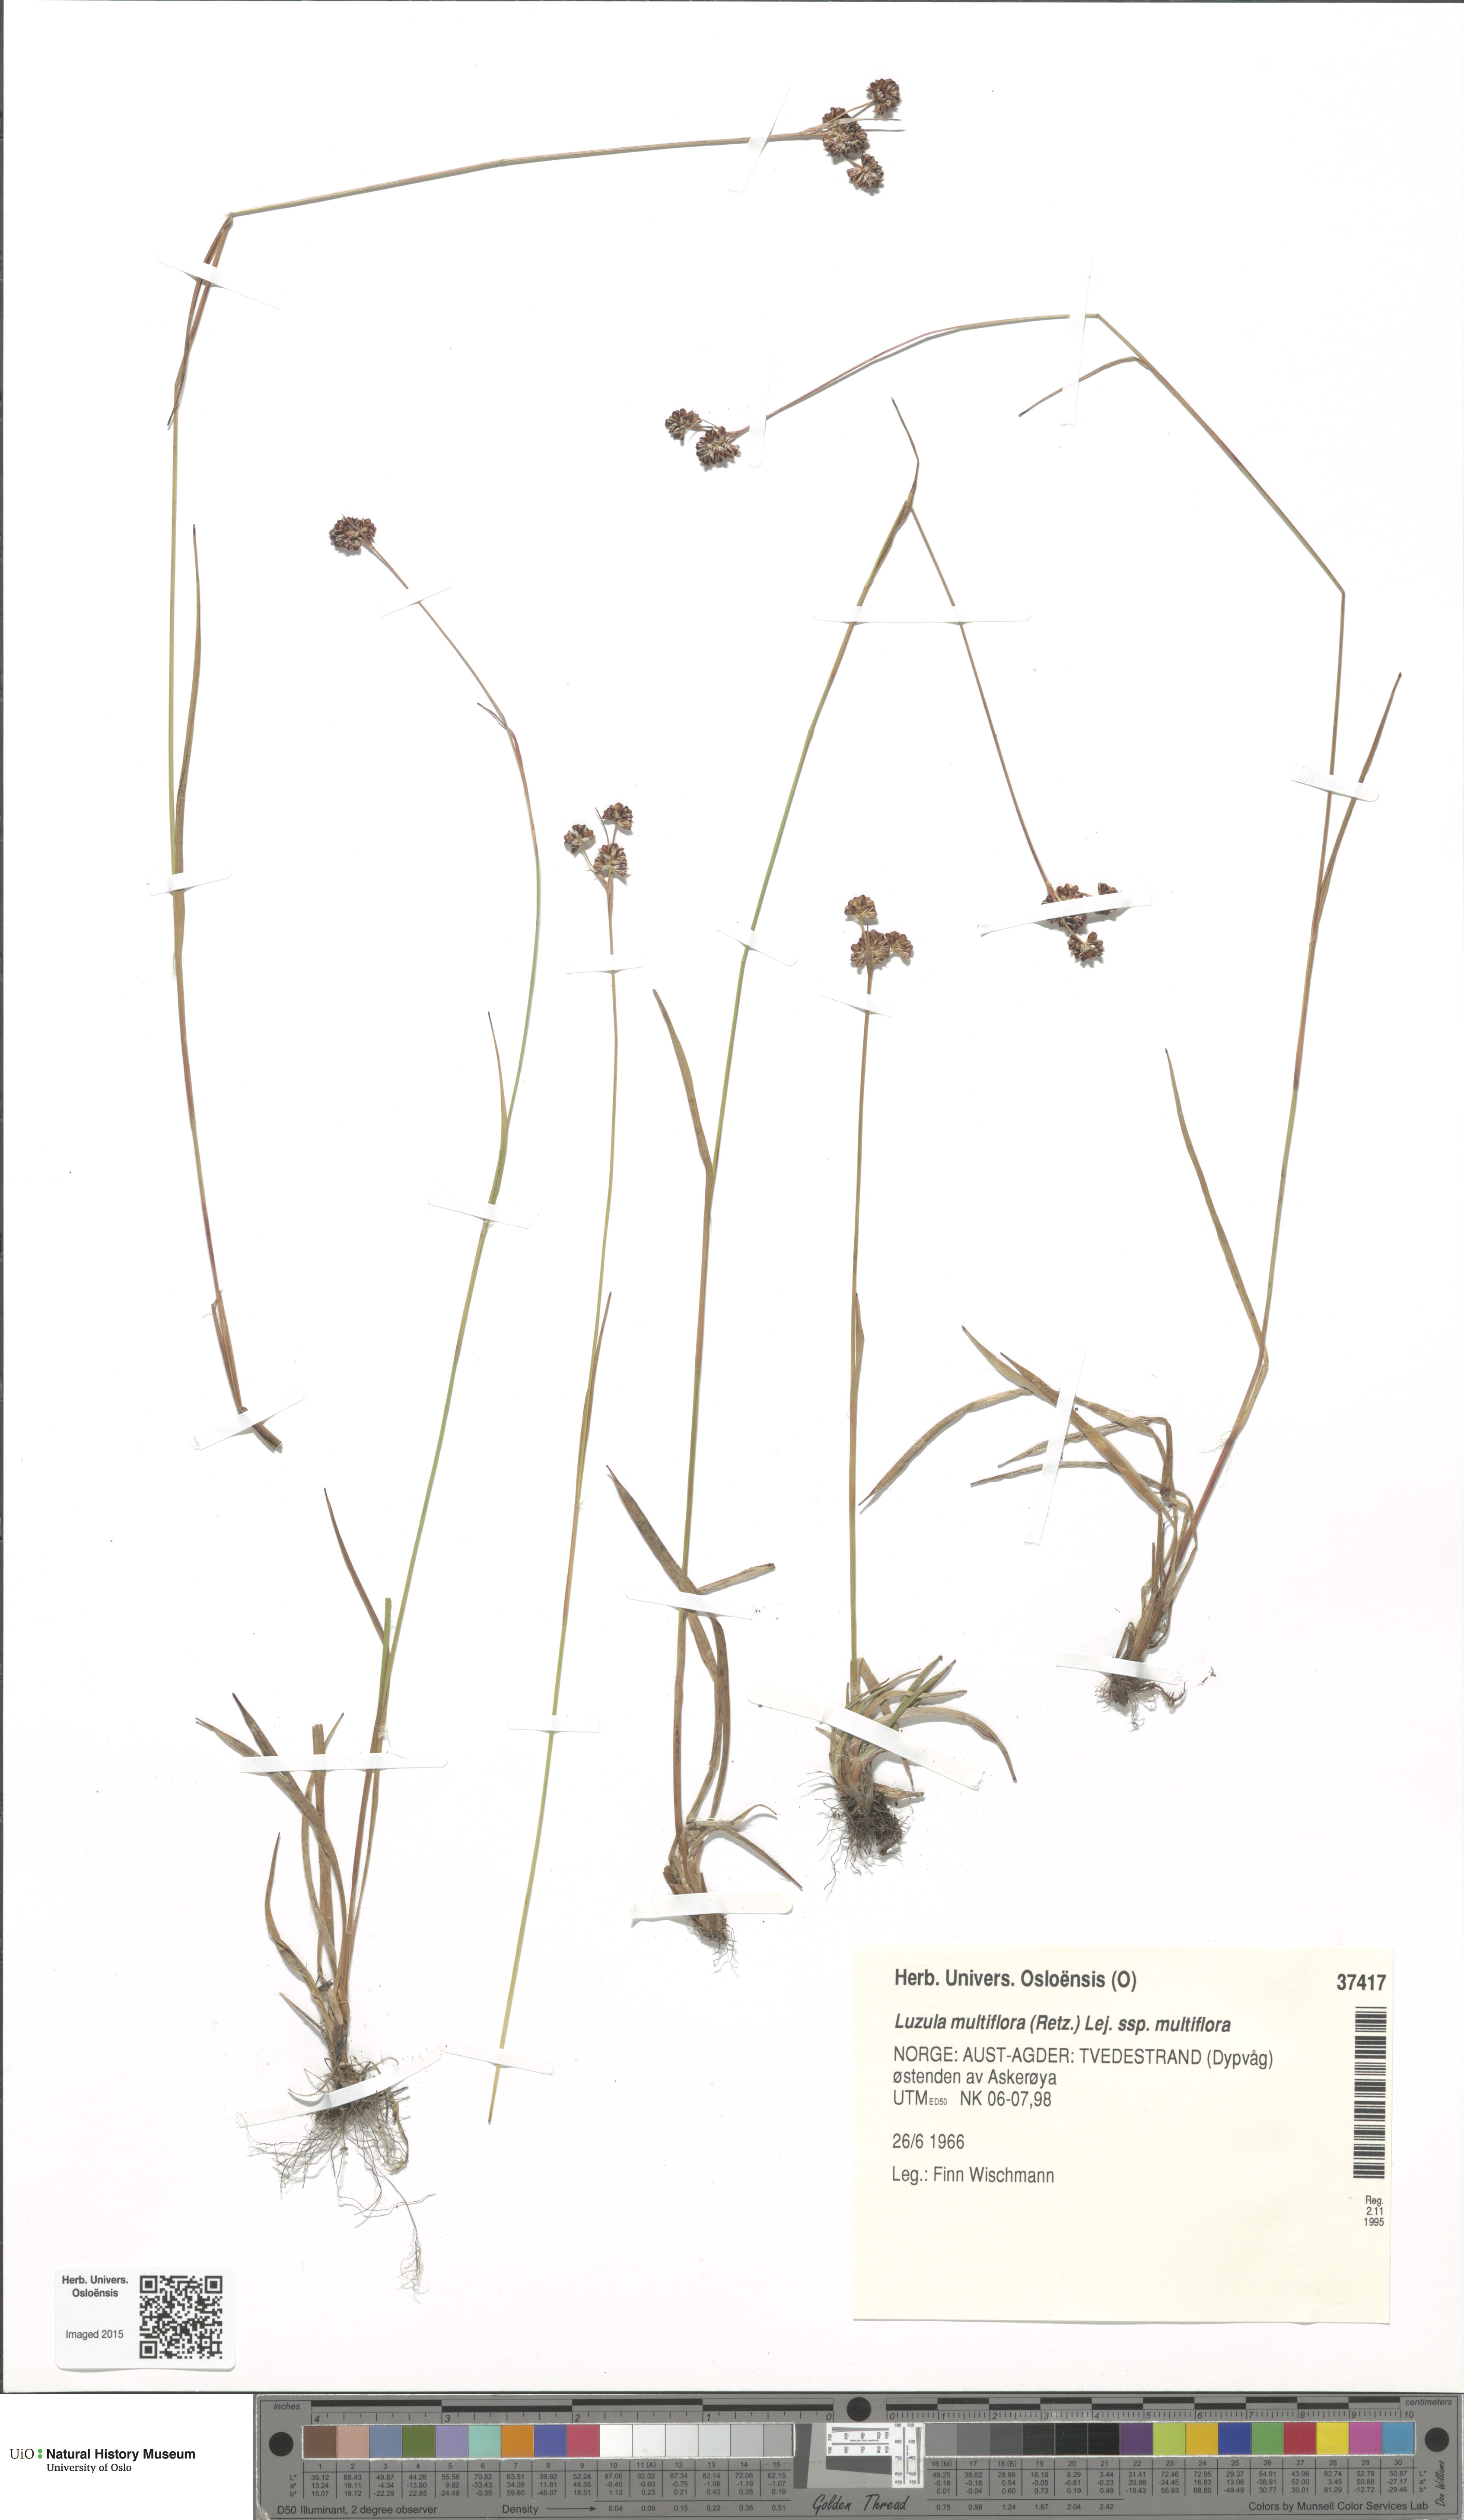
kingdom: Plantae
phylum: Tracheophyta
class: Liliopsida
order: Poales
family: Juncaceae
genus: Luzula
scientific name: Luzula multiflora
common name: Heath wood-rush
